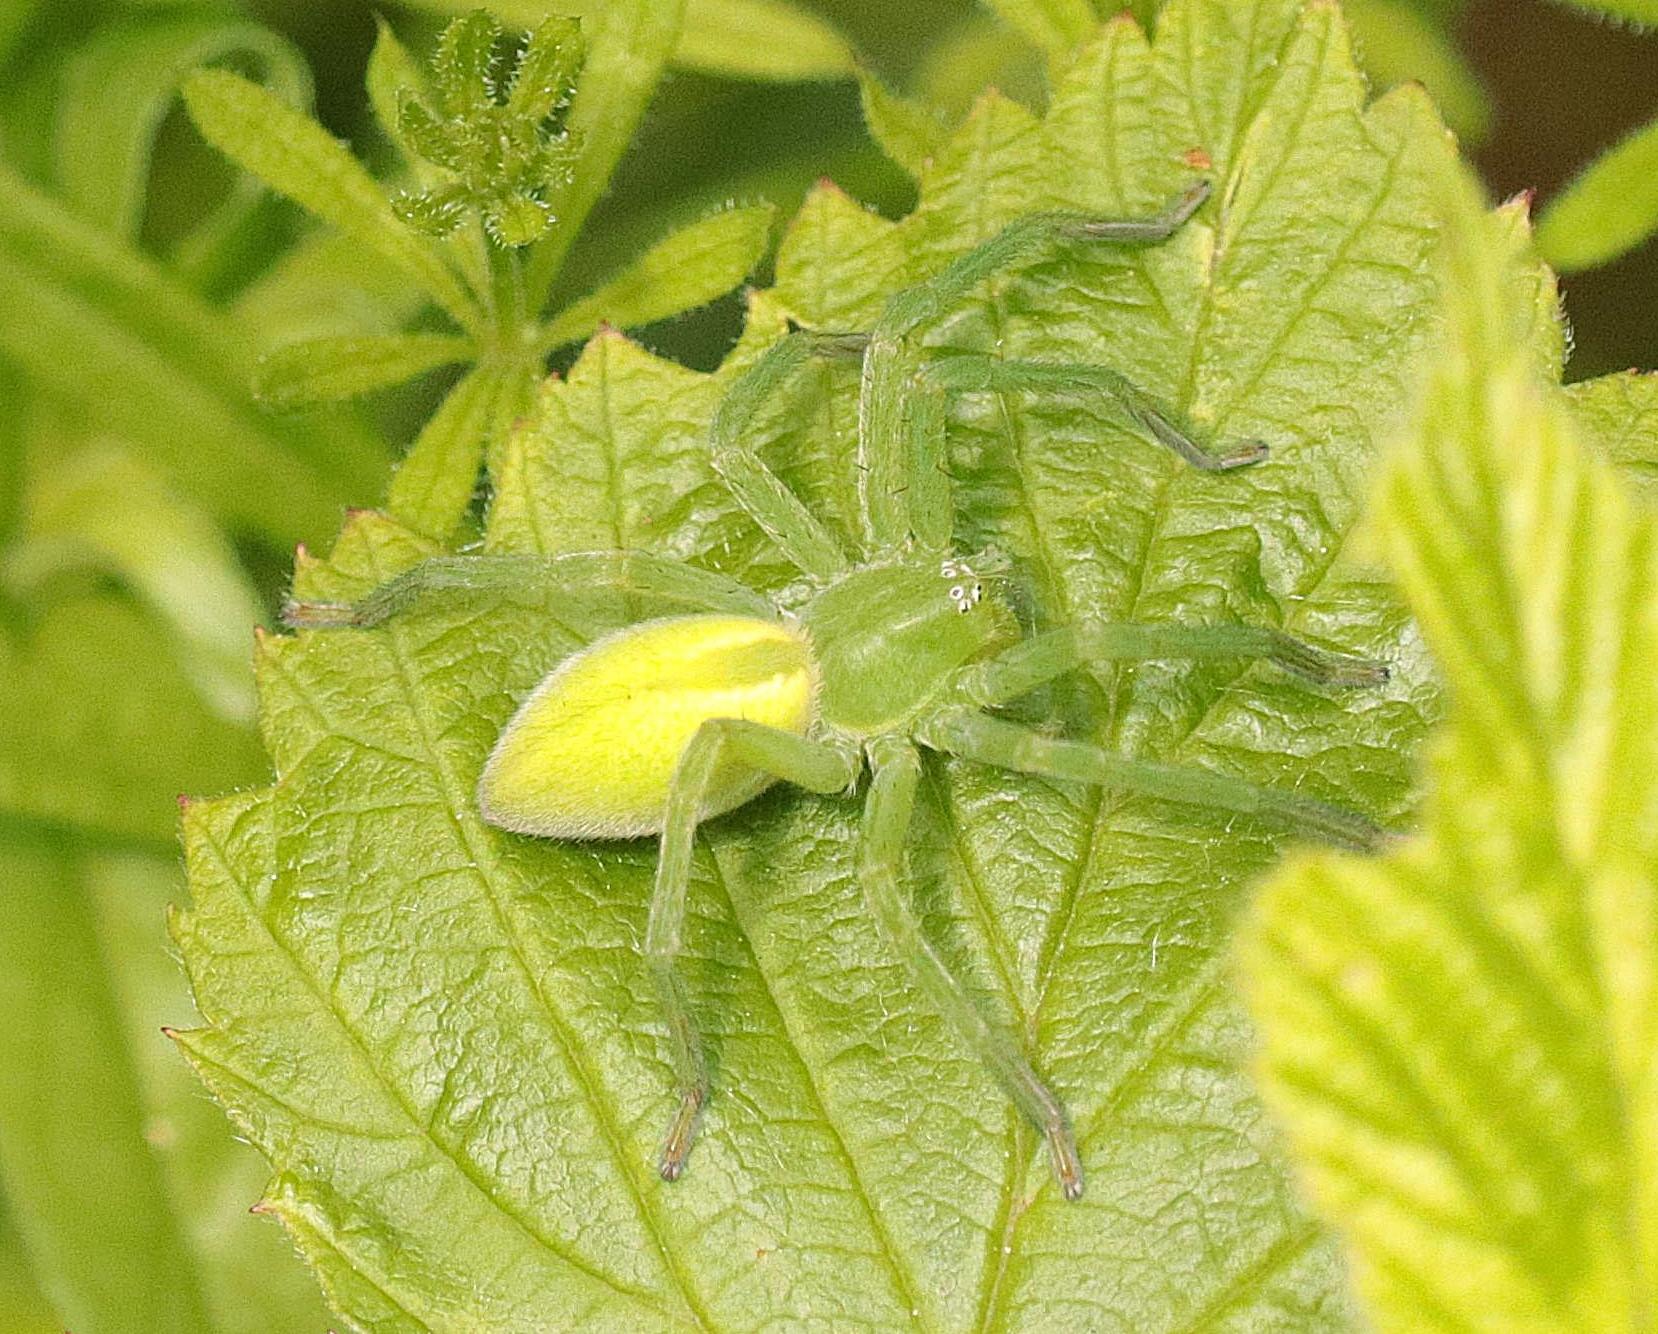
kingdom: Animalia
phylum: Arthropoda
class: Arachnida
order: Araneae
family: Sparassidae
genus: Micrommata
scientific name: Micrommata virescens
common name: Smaragdedderkop
